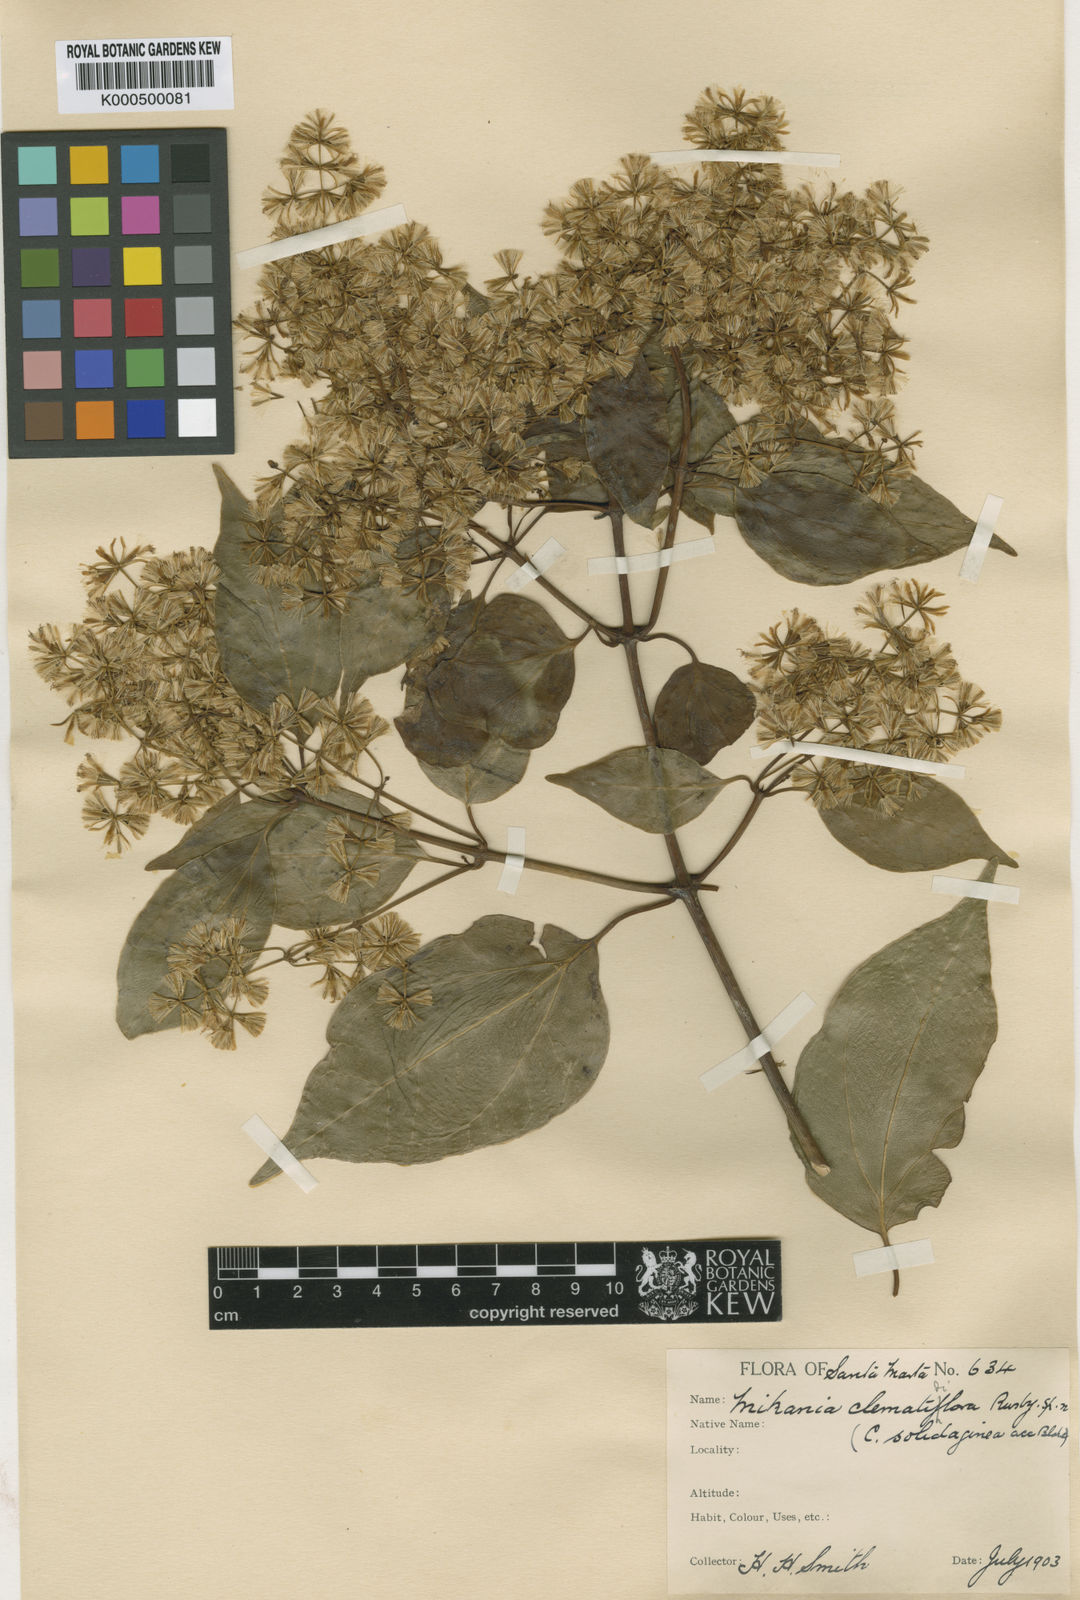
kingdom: Plantae
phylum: Tracheophyta
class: Magnoliopsida
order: Asterales
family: Asteraceae
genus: Mikania
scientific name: Mikania
